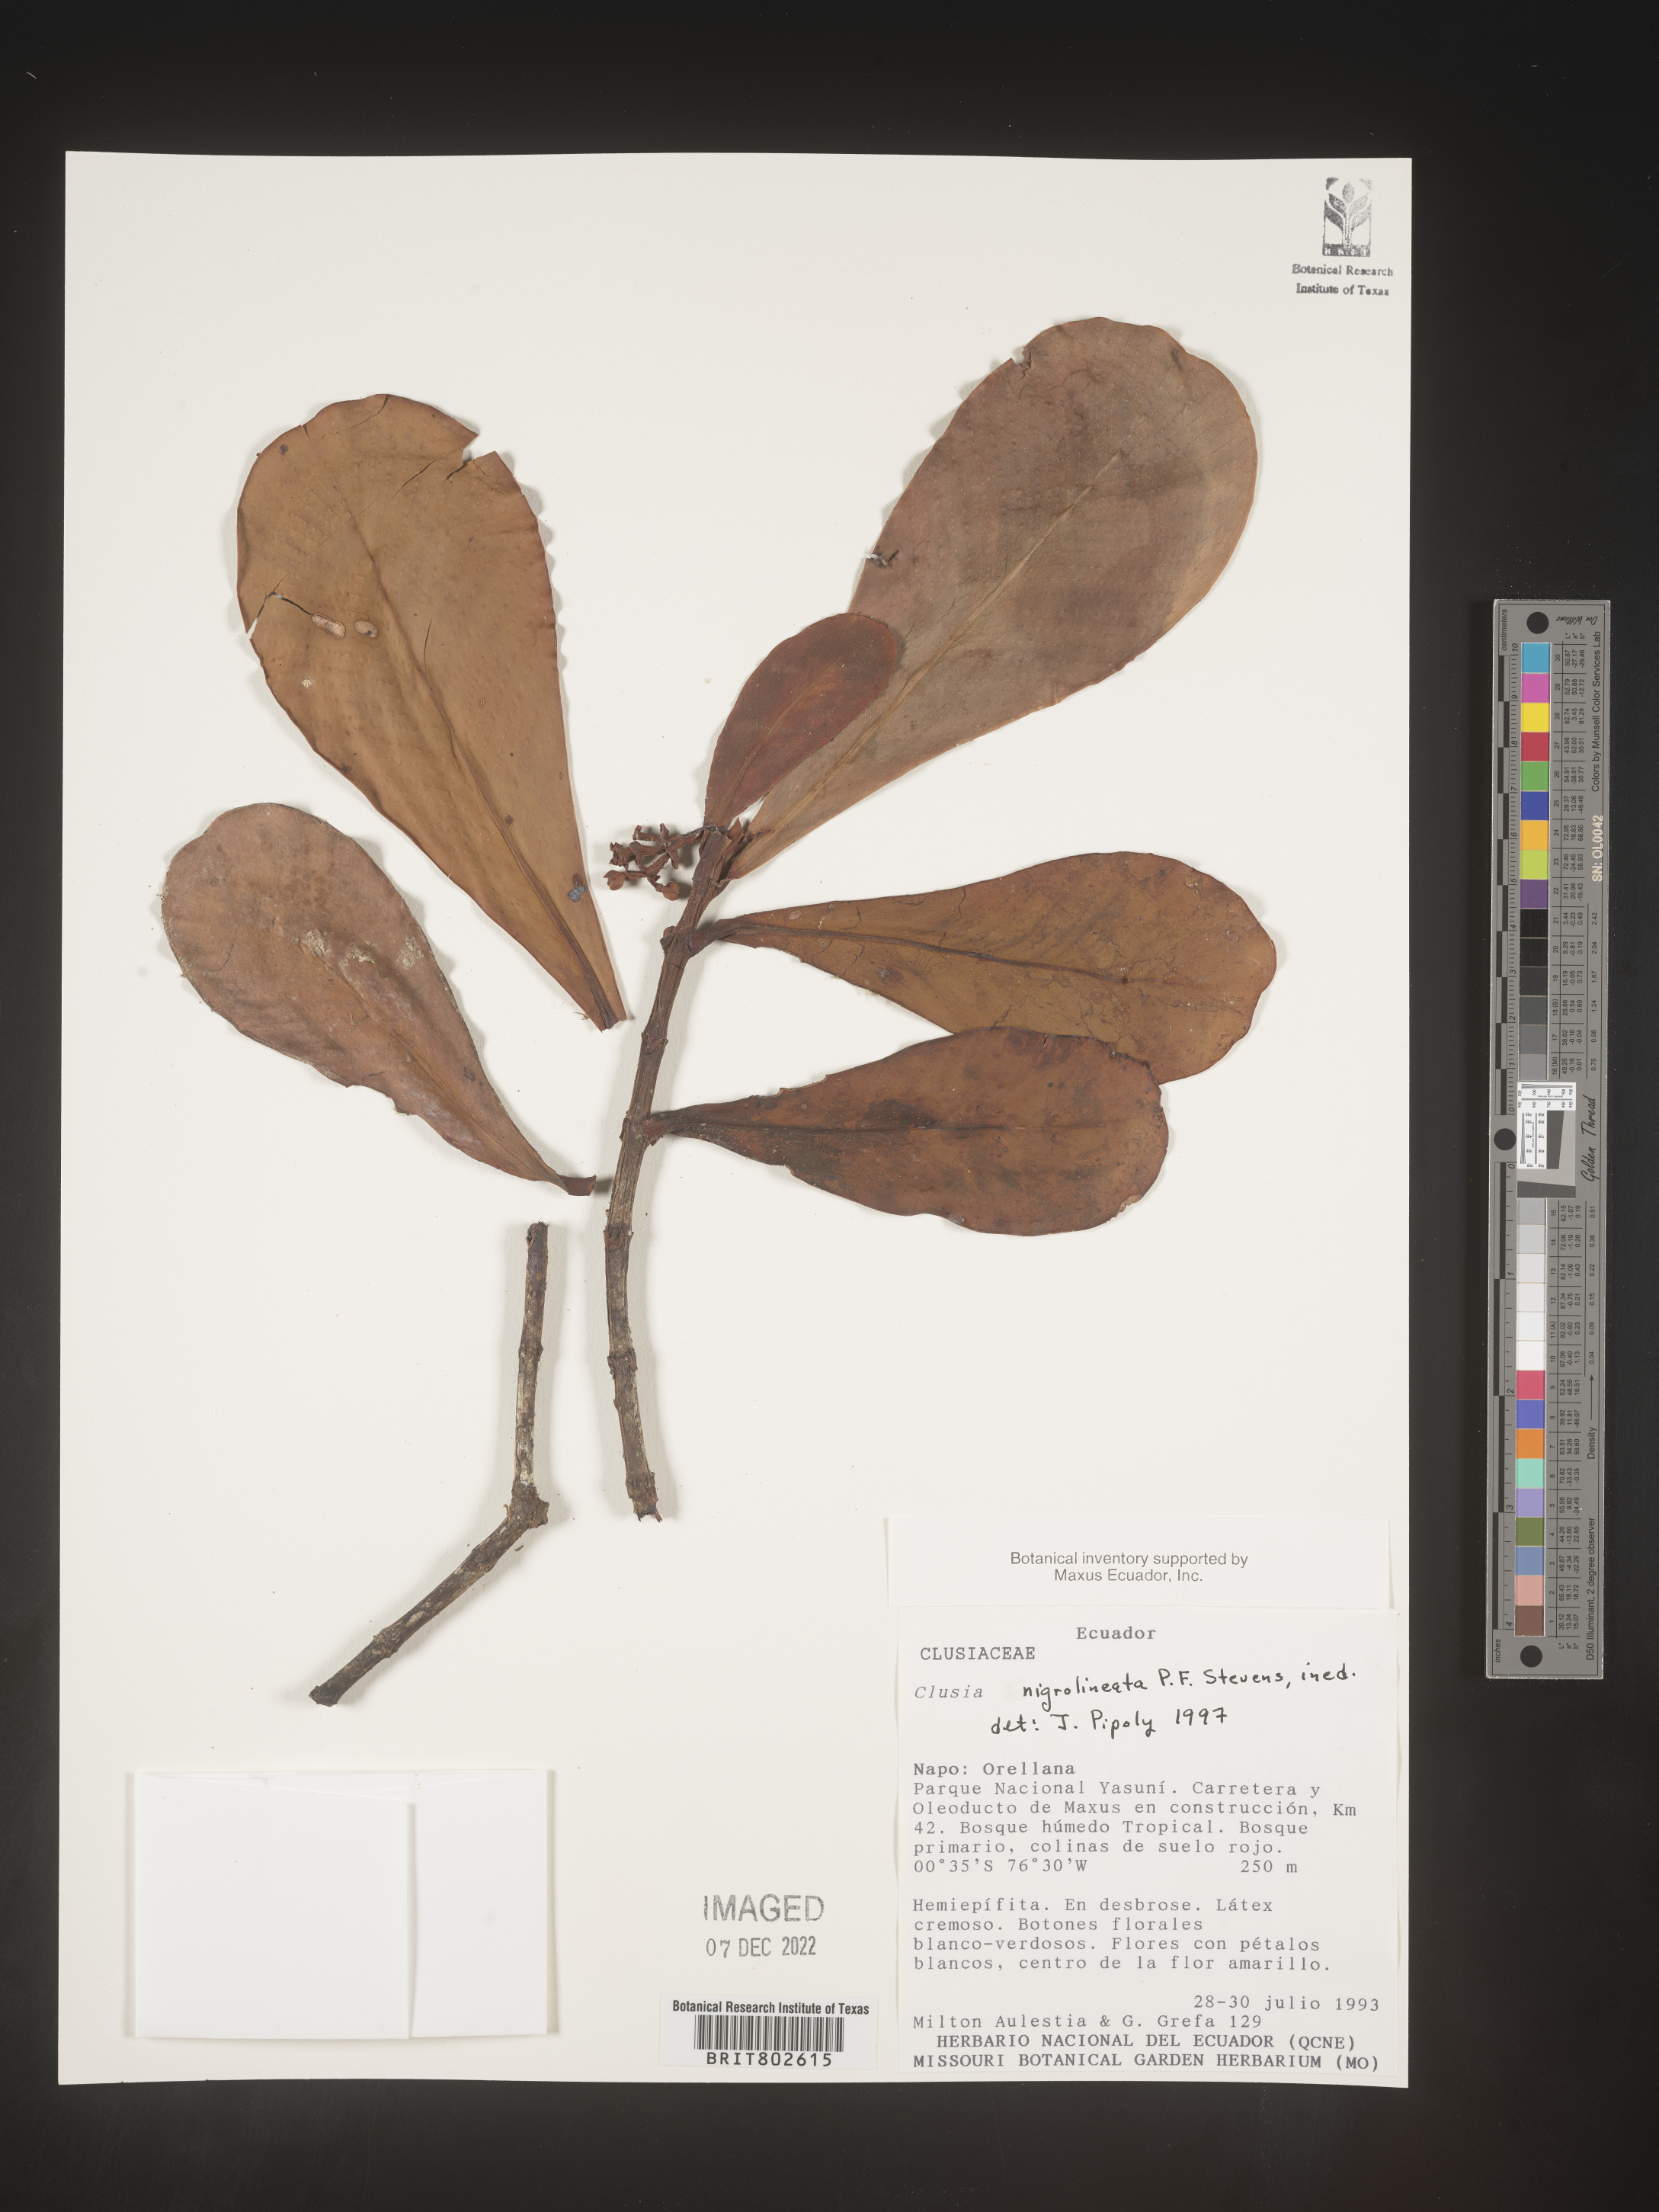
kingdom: Plantae
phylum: Tracheophyta
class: Magnoliopsida
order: Malpighiales
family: Clusiaceae
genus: Clusia
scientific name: Clusia nigrolineata
